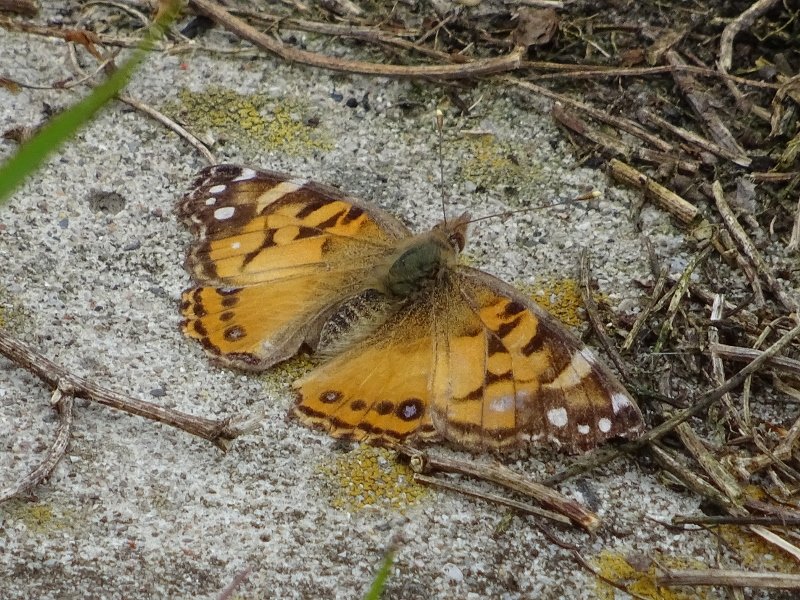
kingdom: Animalia
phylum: Arthropoda
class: Insecta
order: Lepidoptera
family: Nymphalidae
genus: Vanessa
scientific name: Vanessa virginiensis
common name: American Lady
